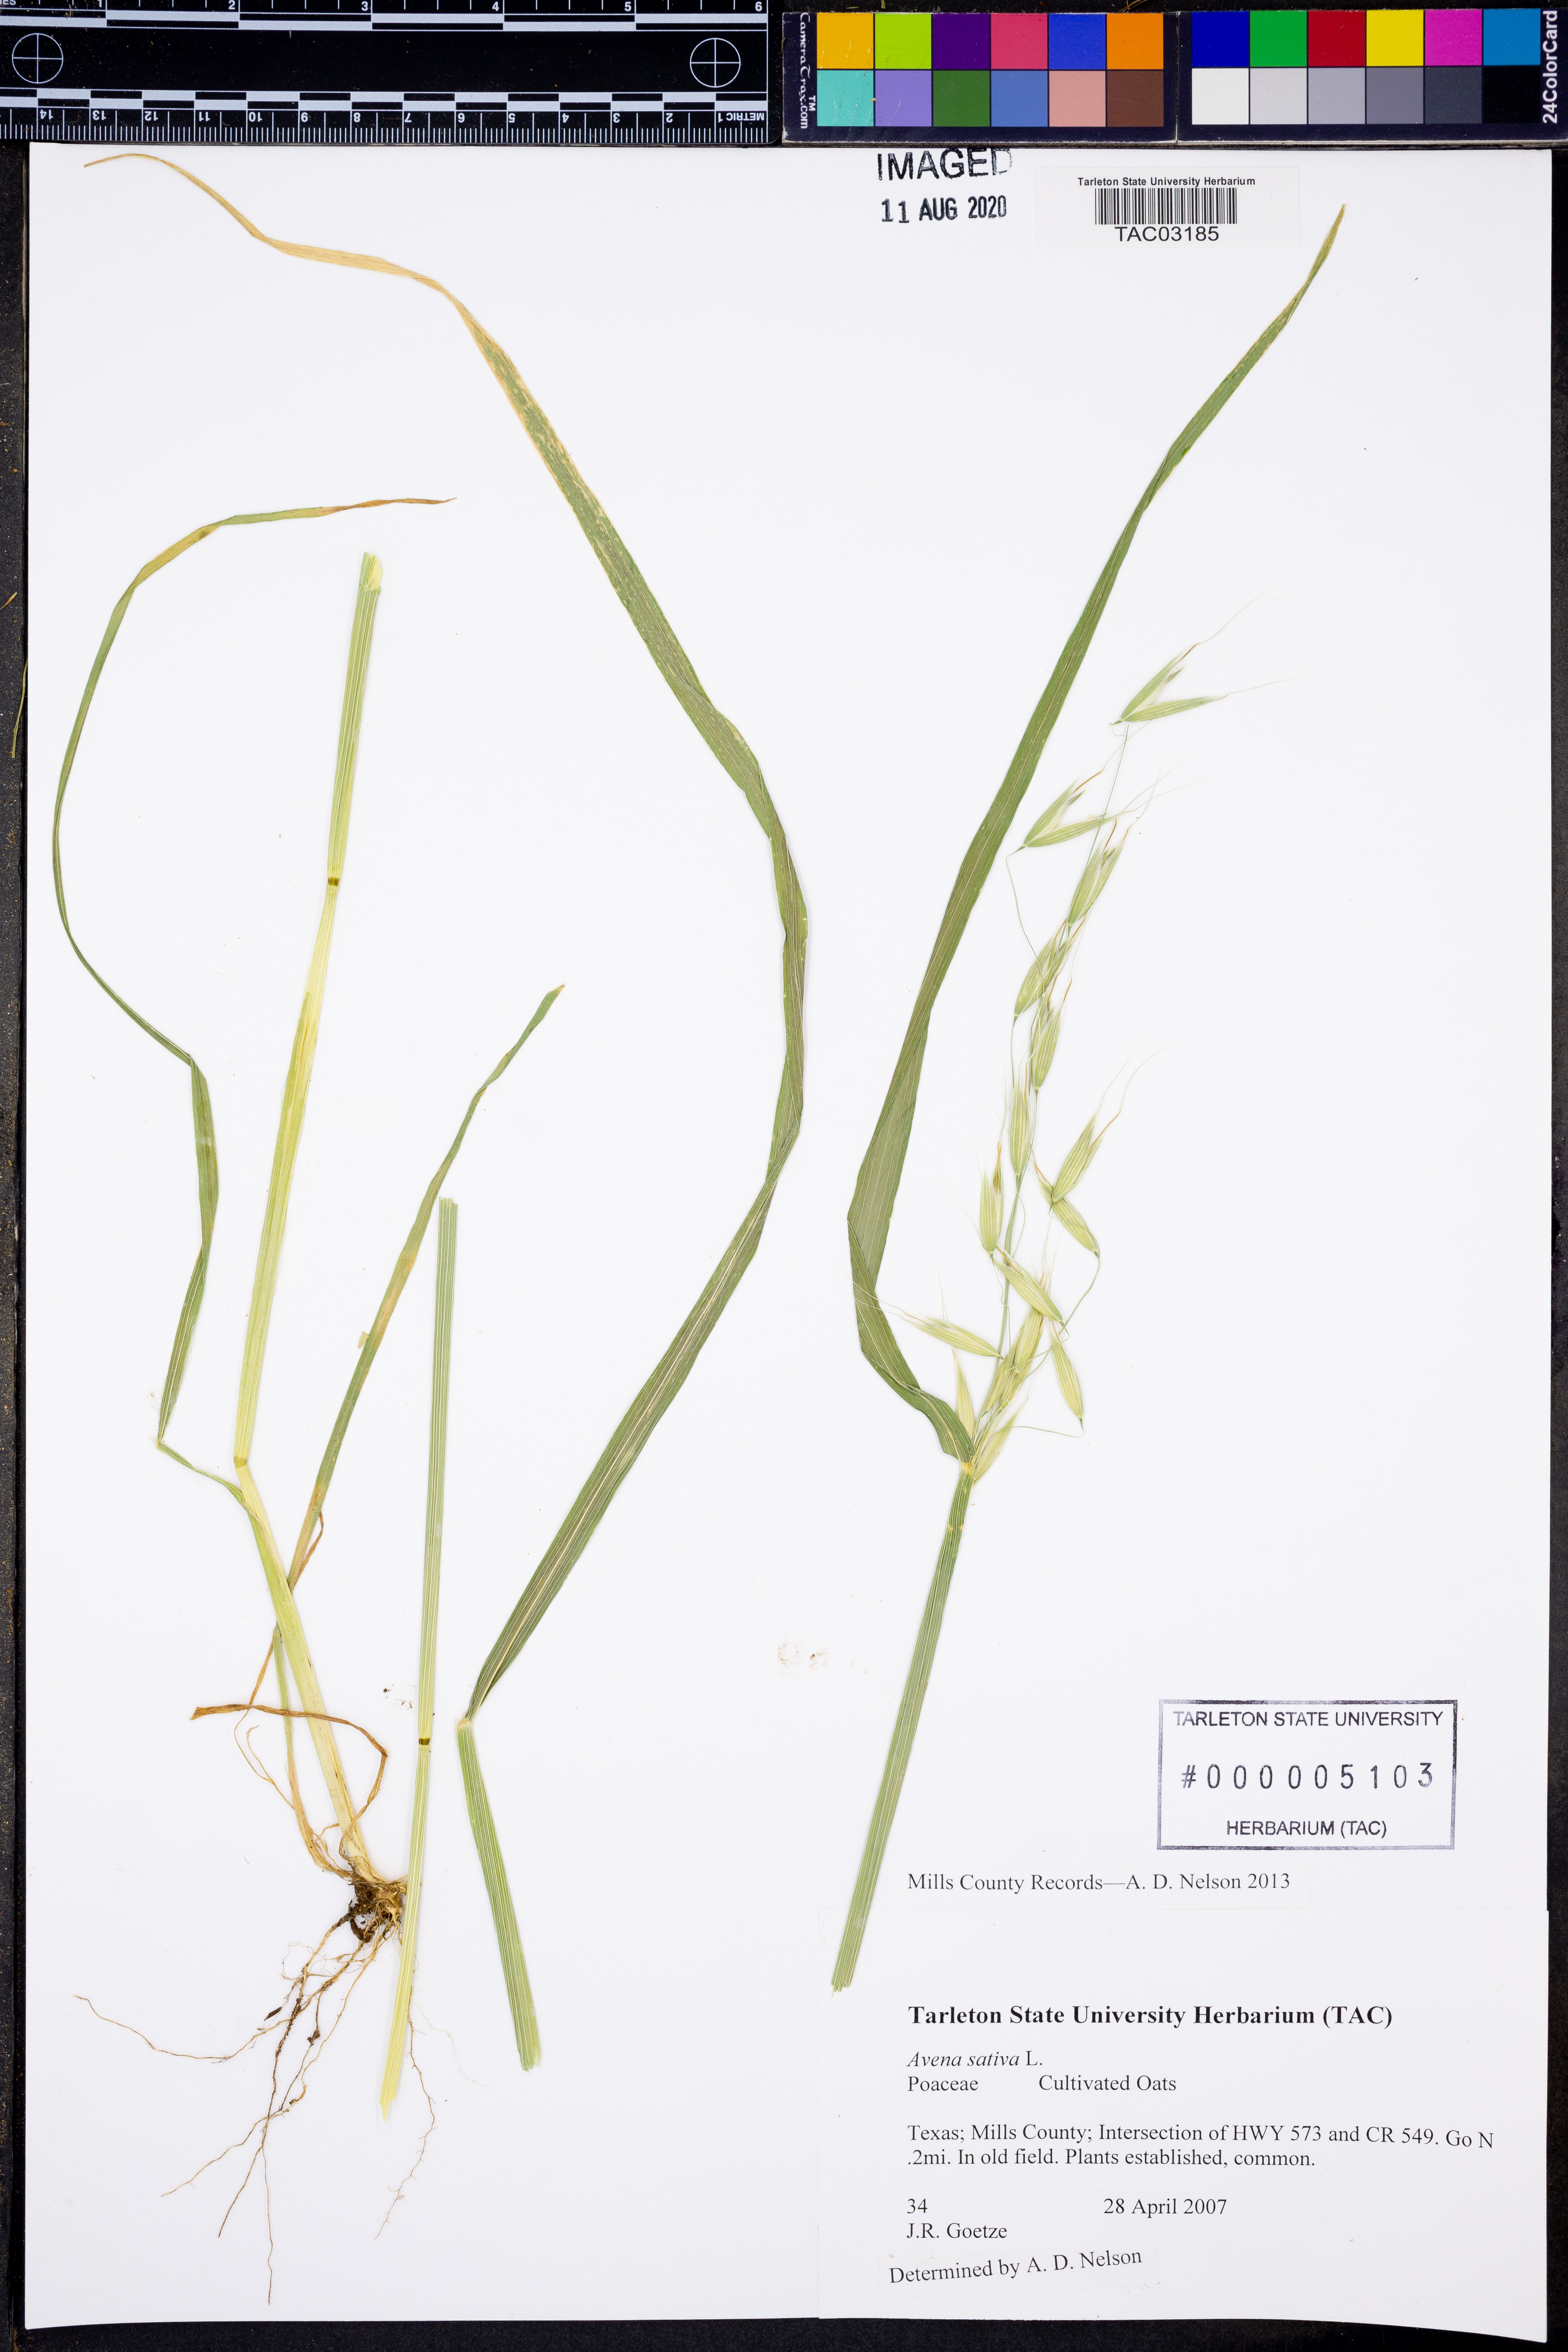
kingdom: Plantae
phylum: Tracheophyta
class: Liliopsida
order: Poales
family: Poaceae
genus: Avena
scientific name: Avena sativa
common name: Oat
